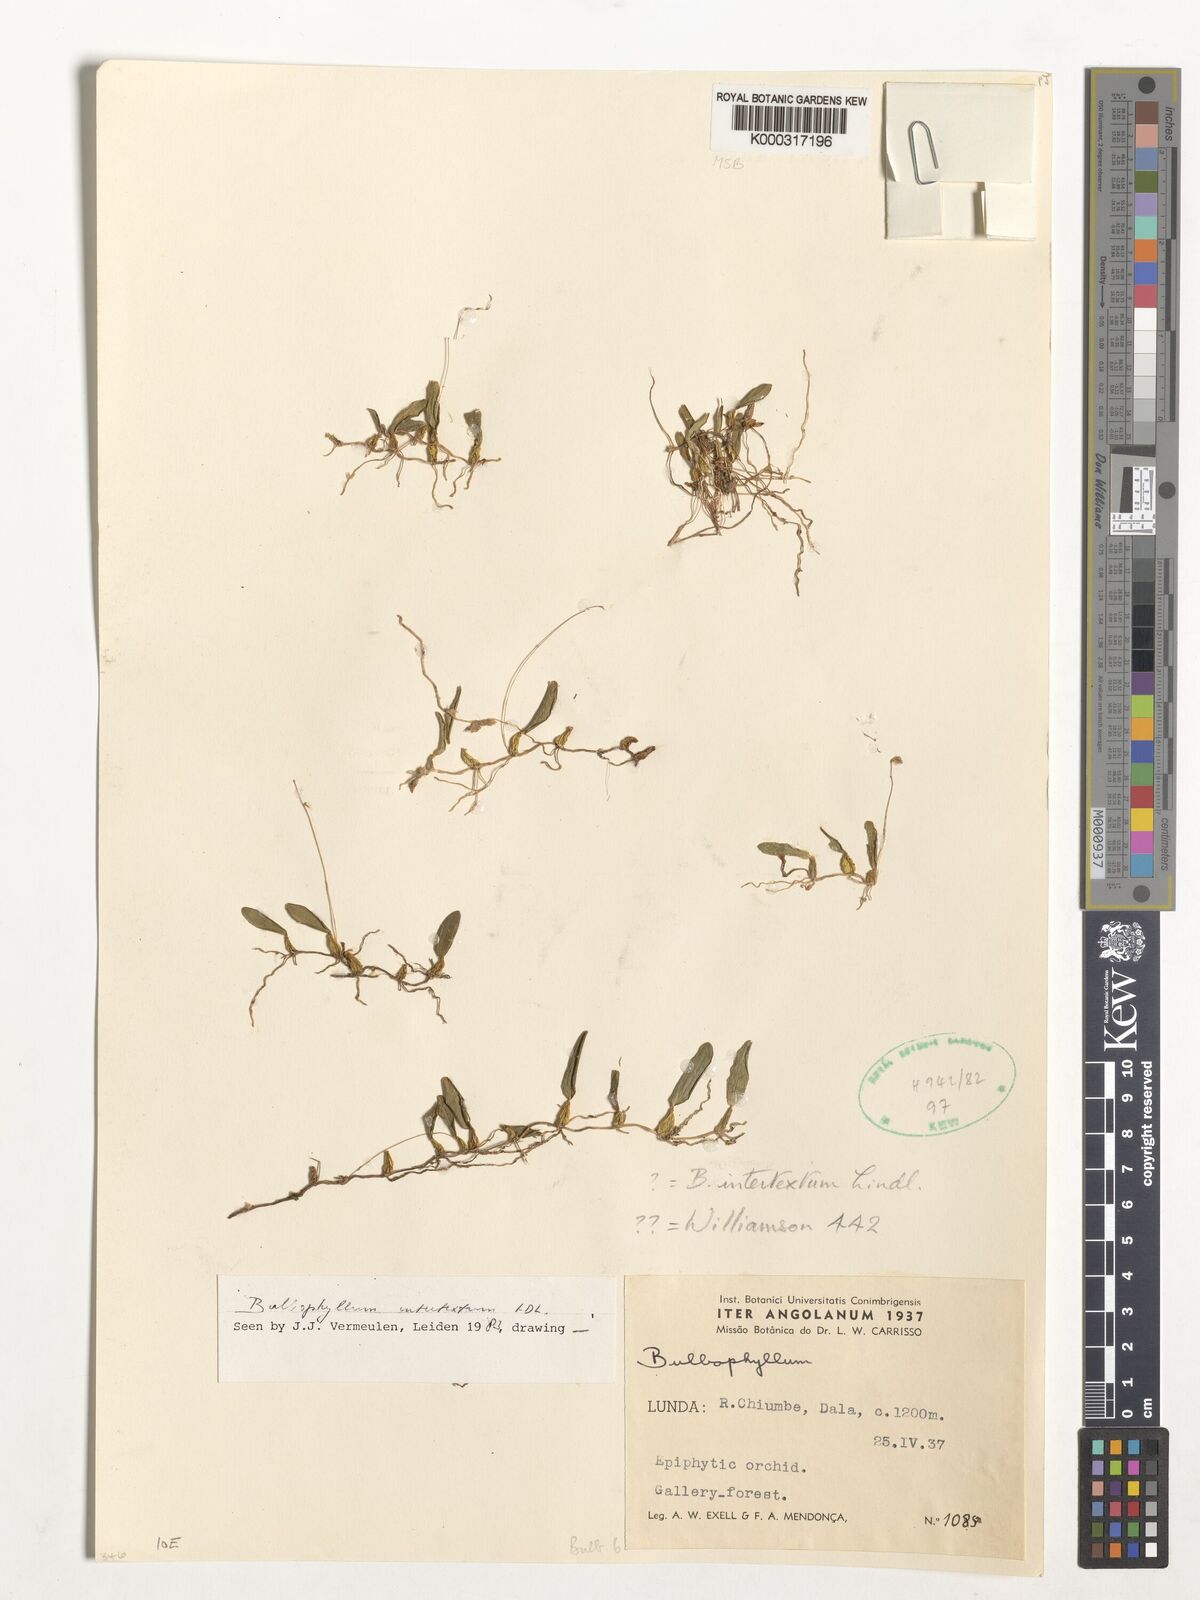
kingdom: Plantae
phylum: Tracheophyta
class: Liliopsida
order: Asparagales
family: Orchidaceae
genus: Bulbophyllum
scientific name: Bulbophyllum intertextum
